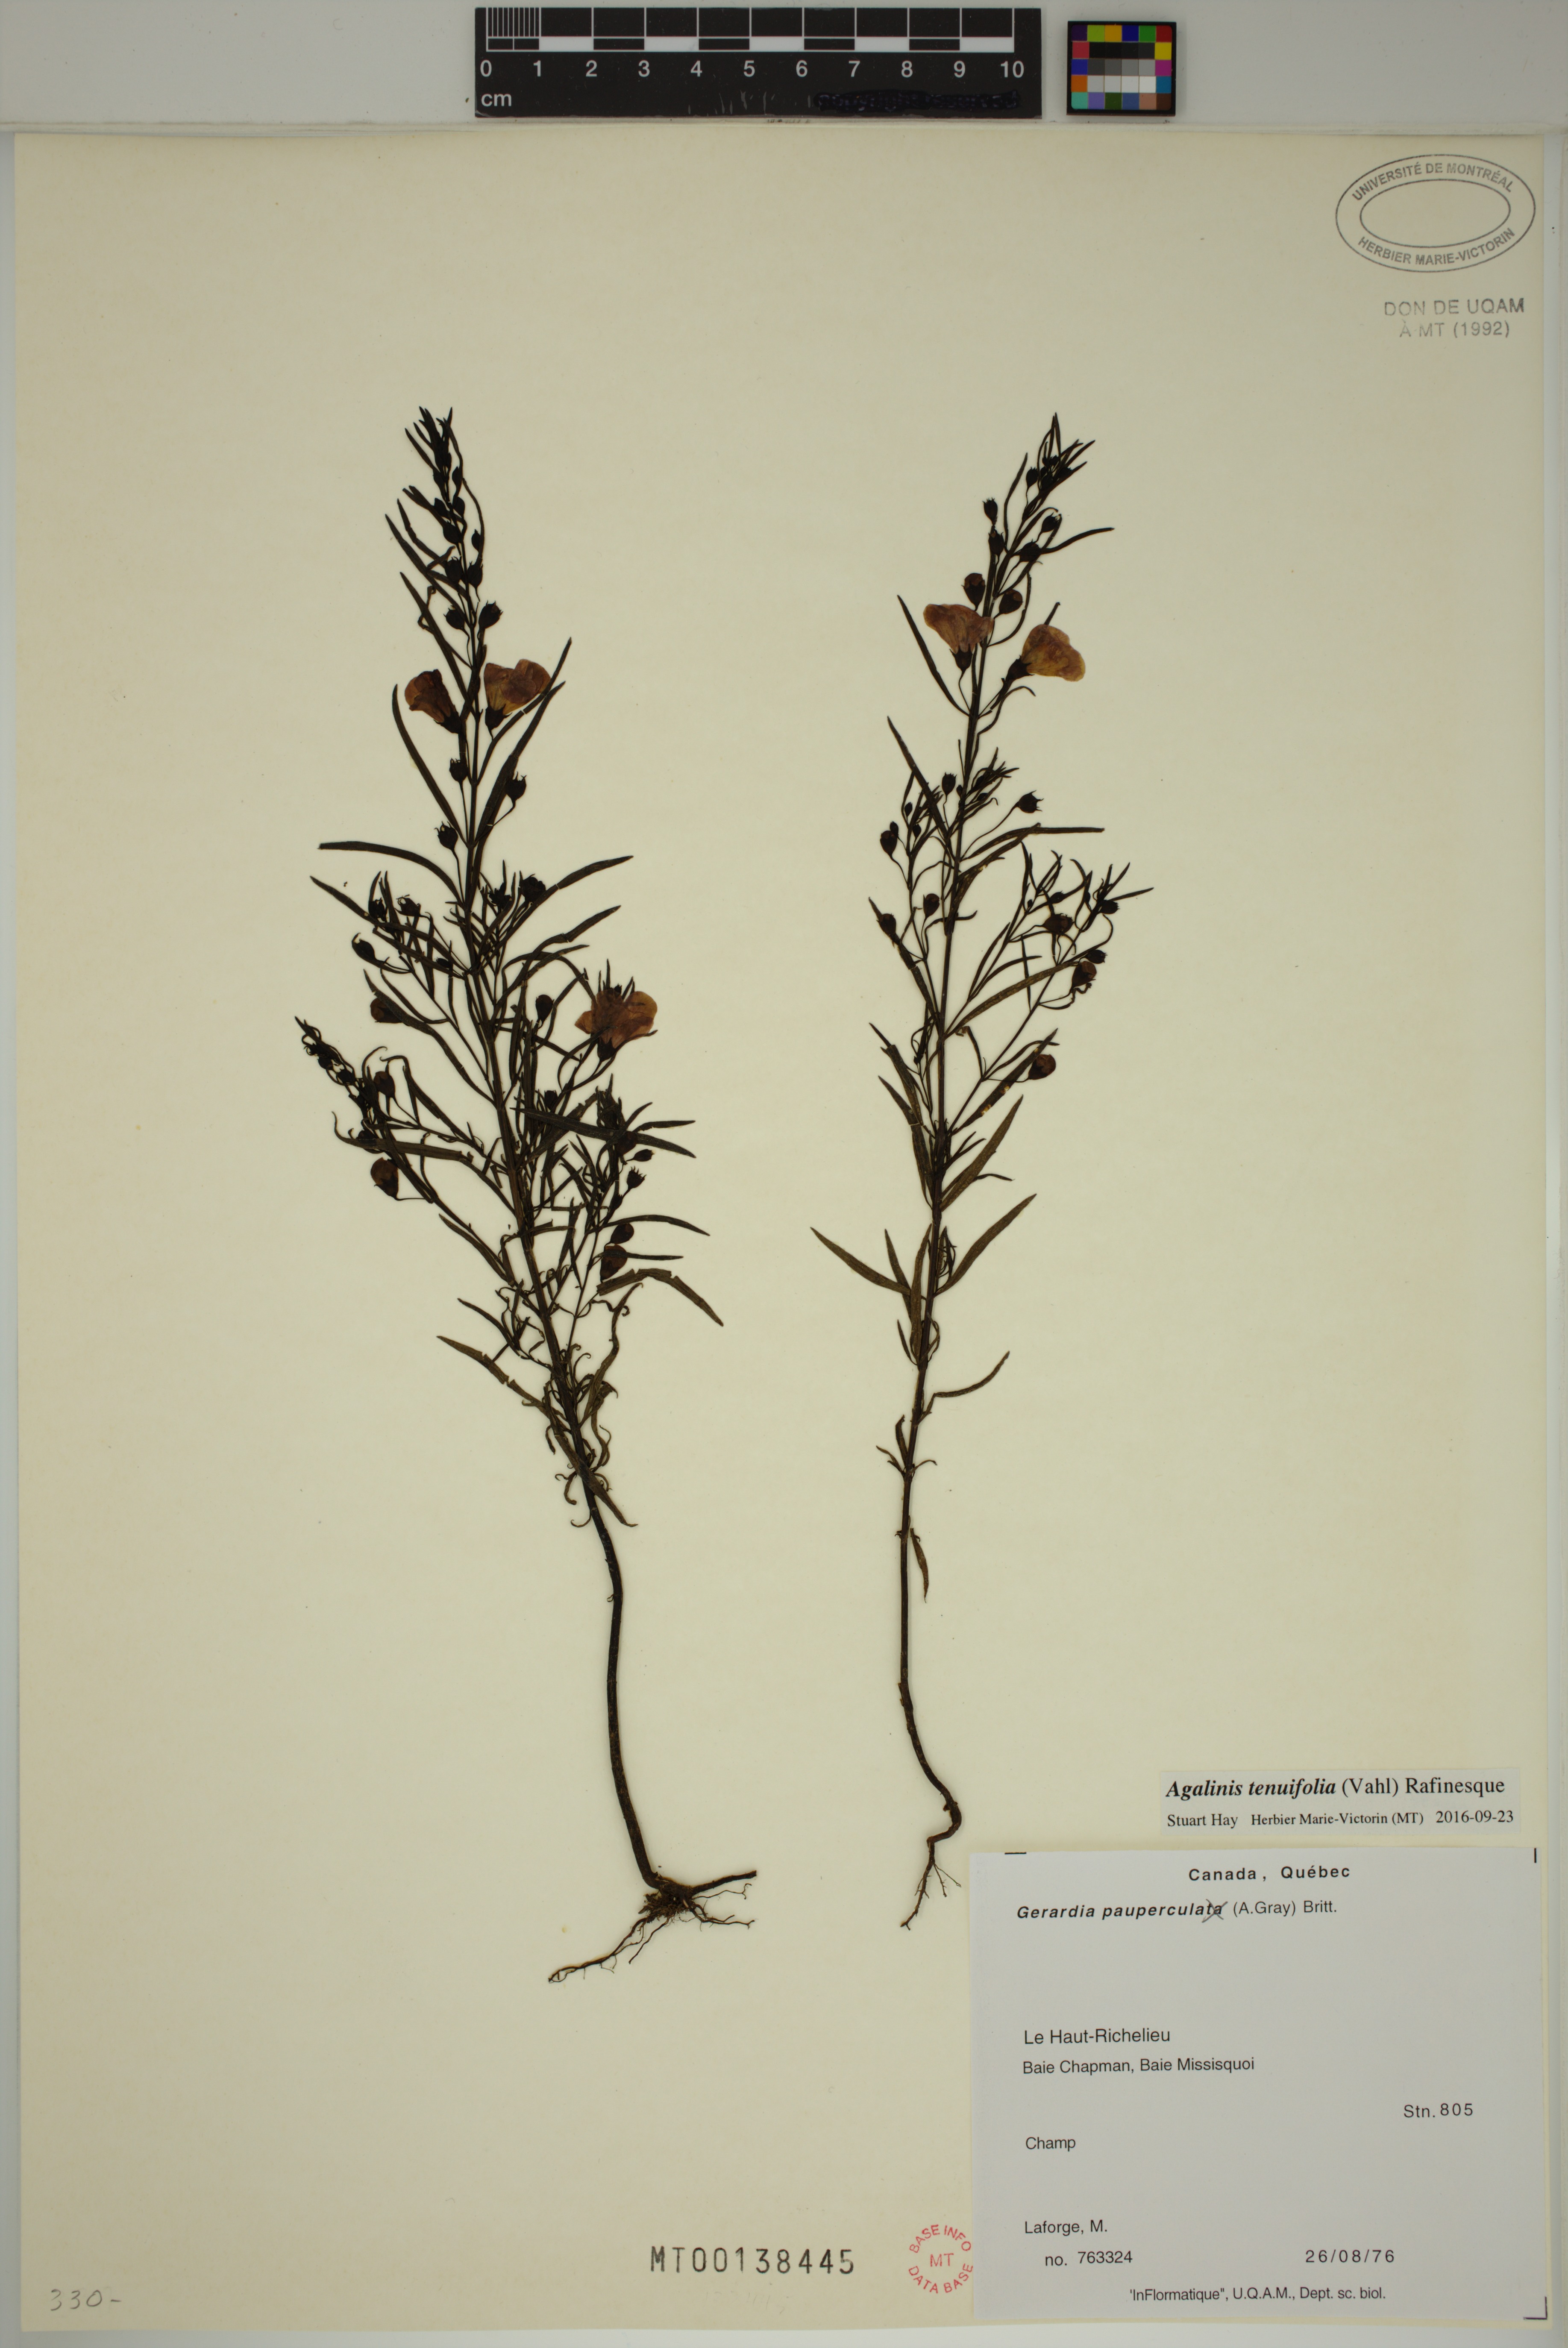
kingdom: Plantae
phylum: Tracheophyta
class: Magnoliopsida
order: Lamiales
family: Orobanchaceae
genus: Agalinis
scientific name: Agalinis tenuifolia
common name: Slender agalinis
